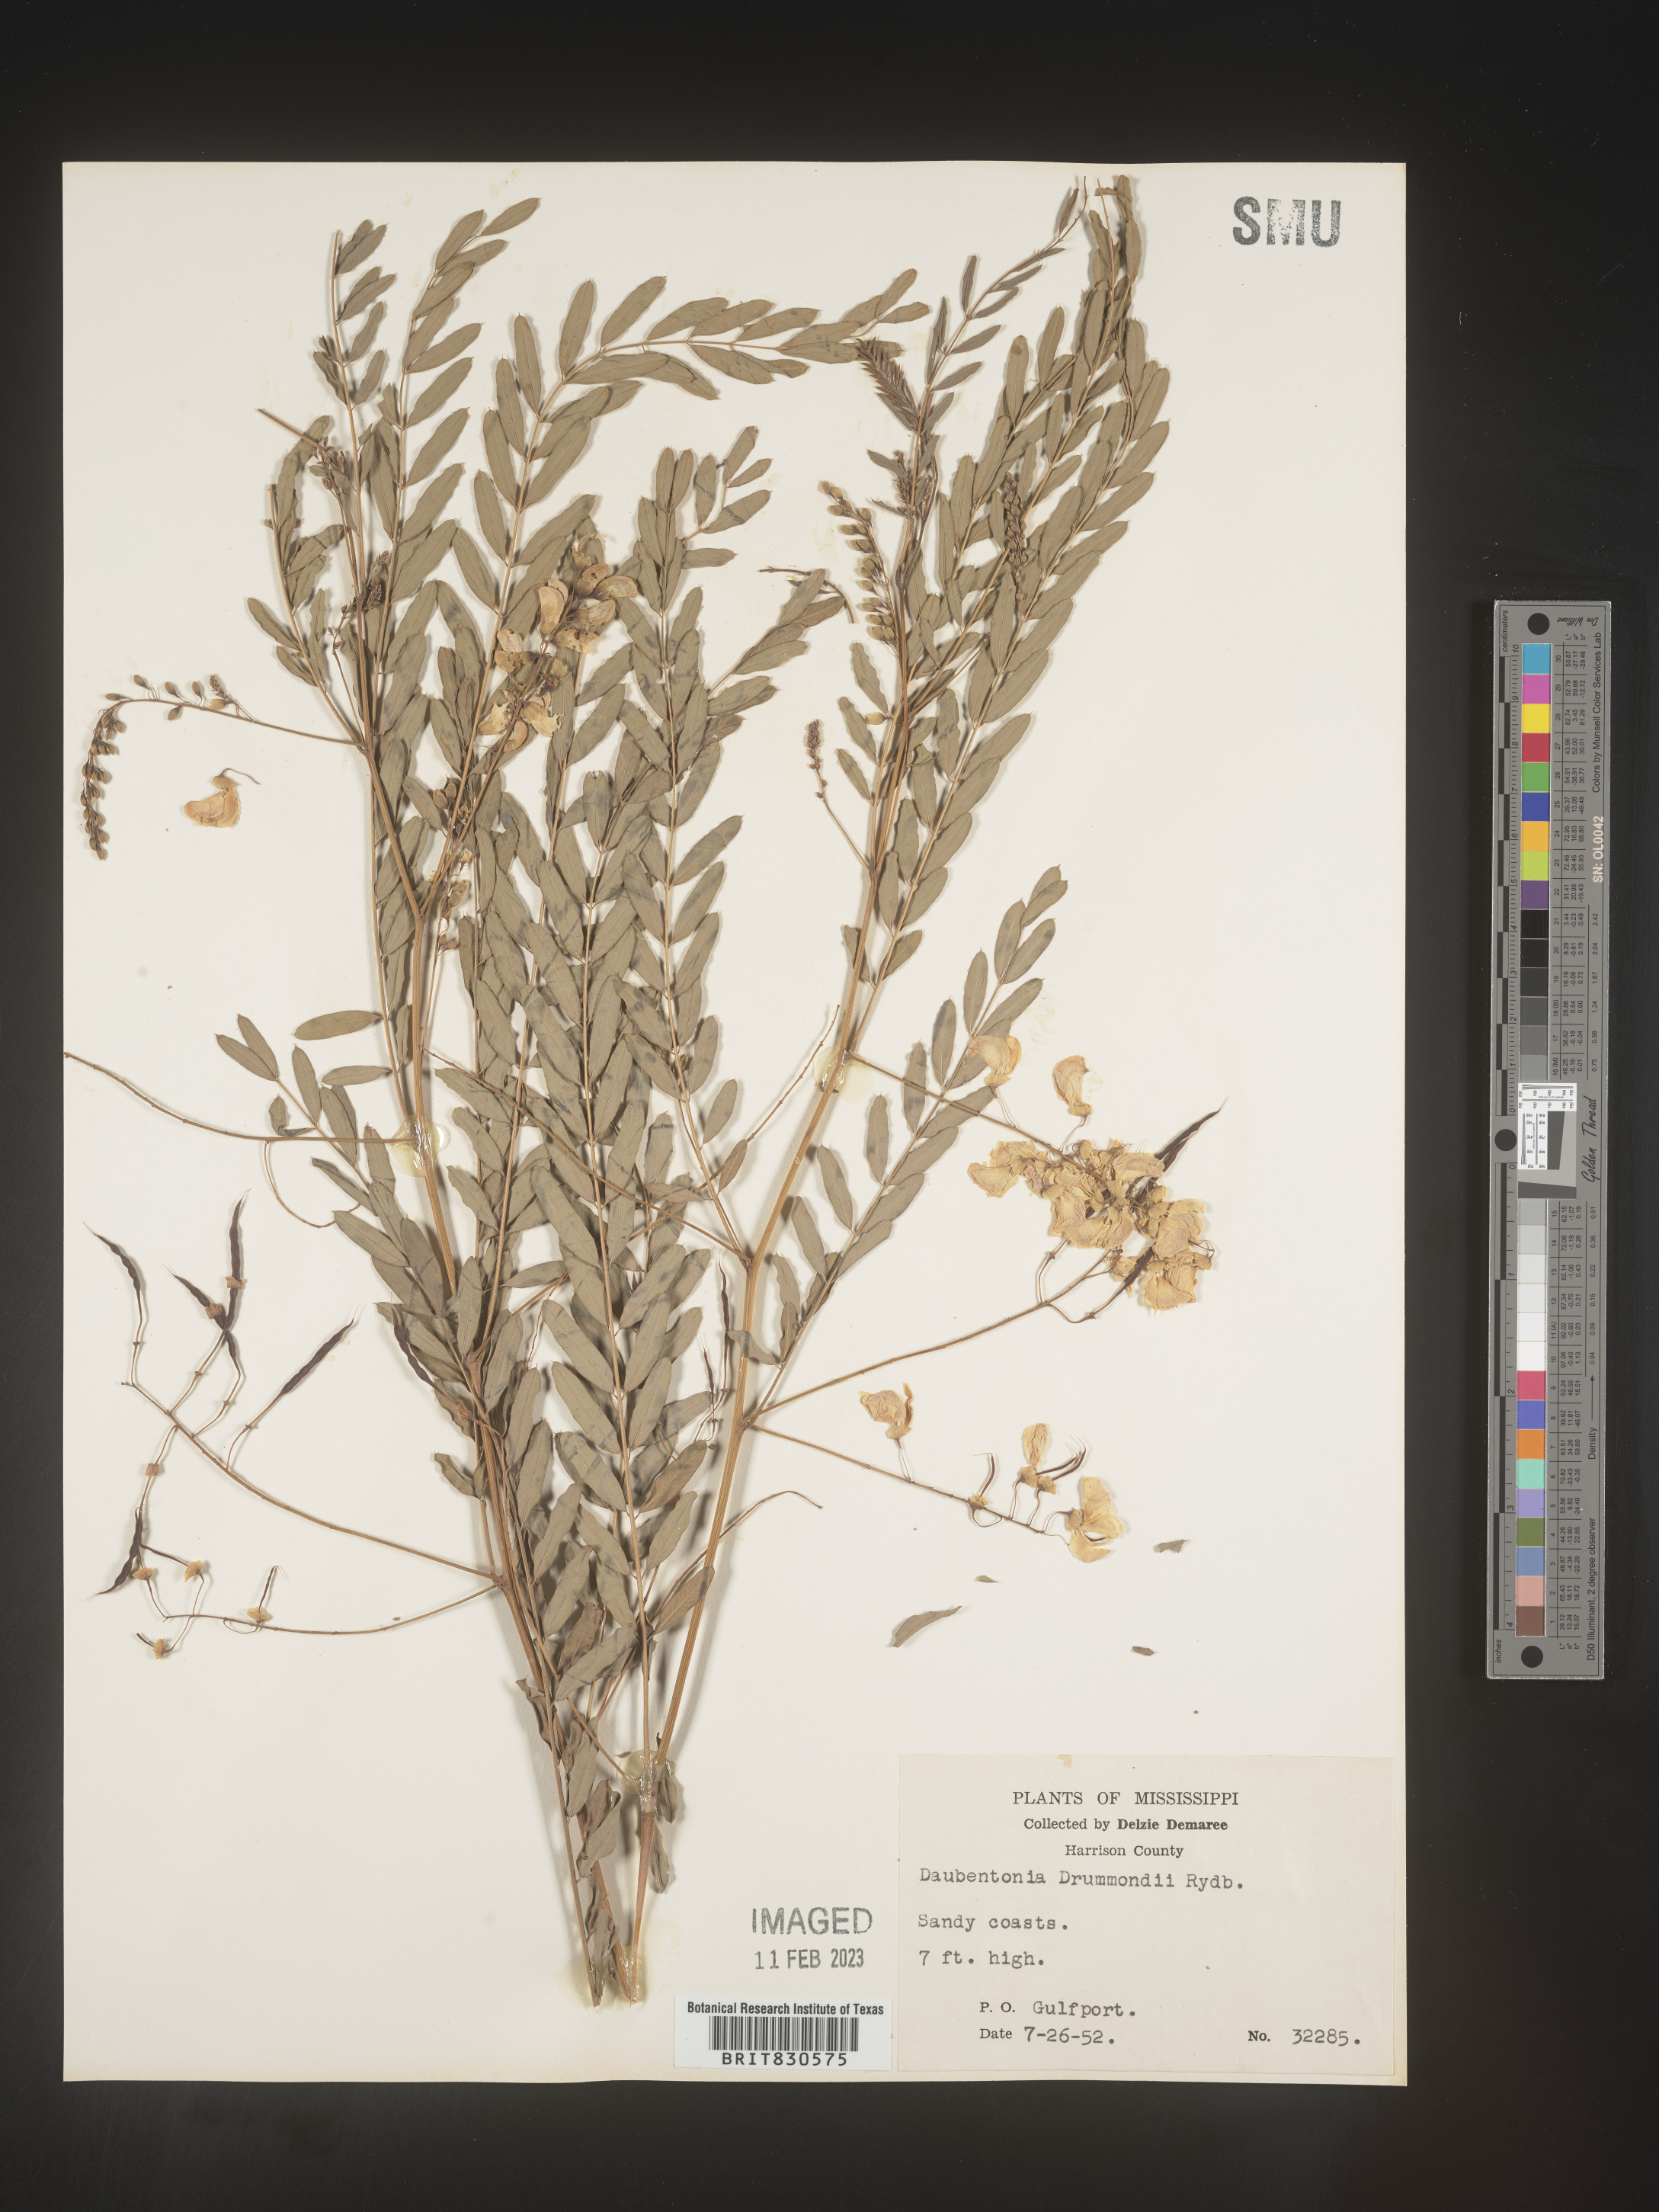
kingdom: Plantae
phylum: Tracheophyta
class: Magnoliopsida
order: Fabales
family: Fabaceae
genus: Sesbania
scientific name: Sesbania drummondii
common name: Poison-bean
